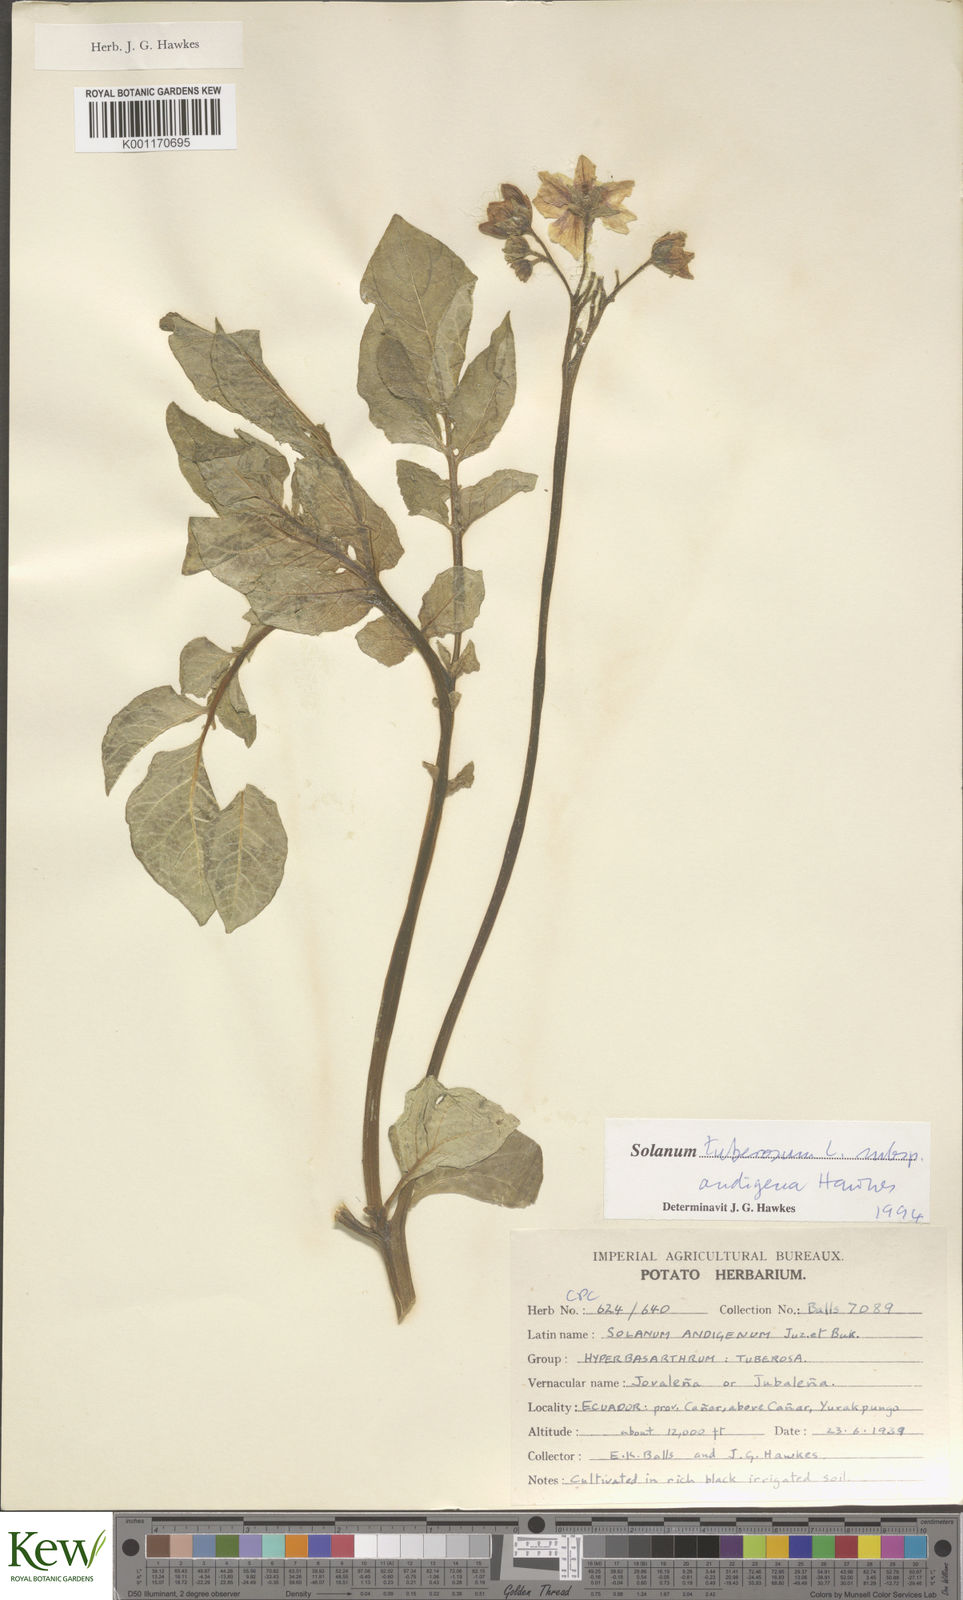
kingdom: Plantae
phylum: Tracheophyta
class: Magnoliopsida
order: Solanales
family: Solanaceae
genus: Solanum
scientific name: Solanum tuberosum
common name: Potato
